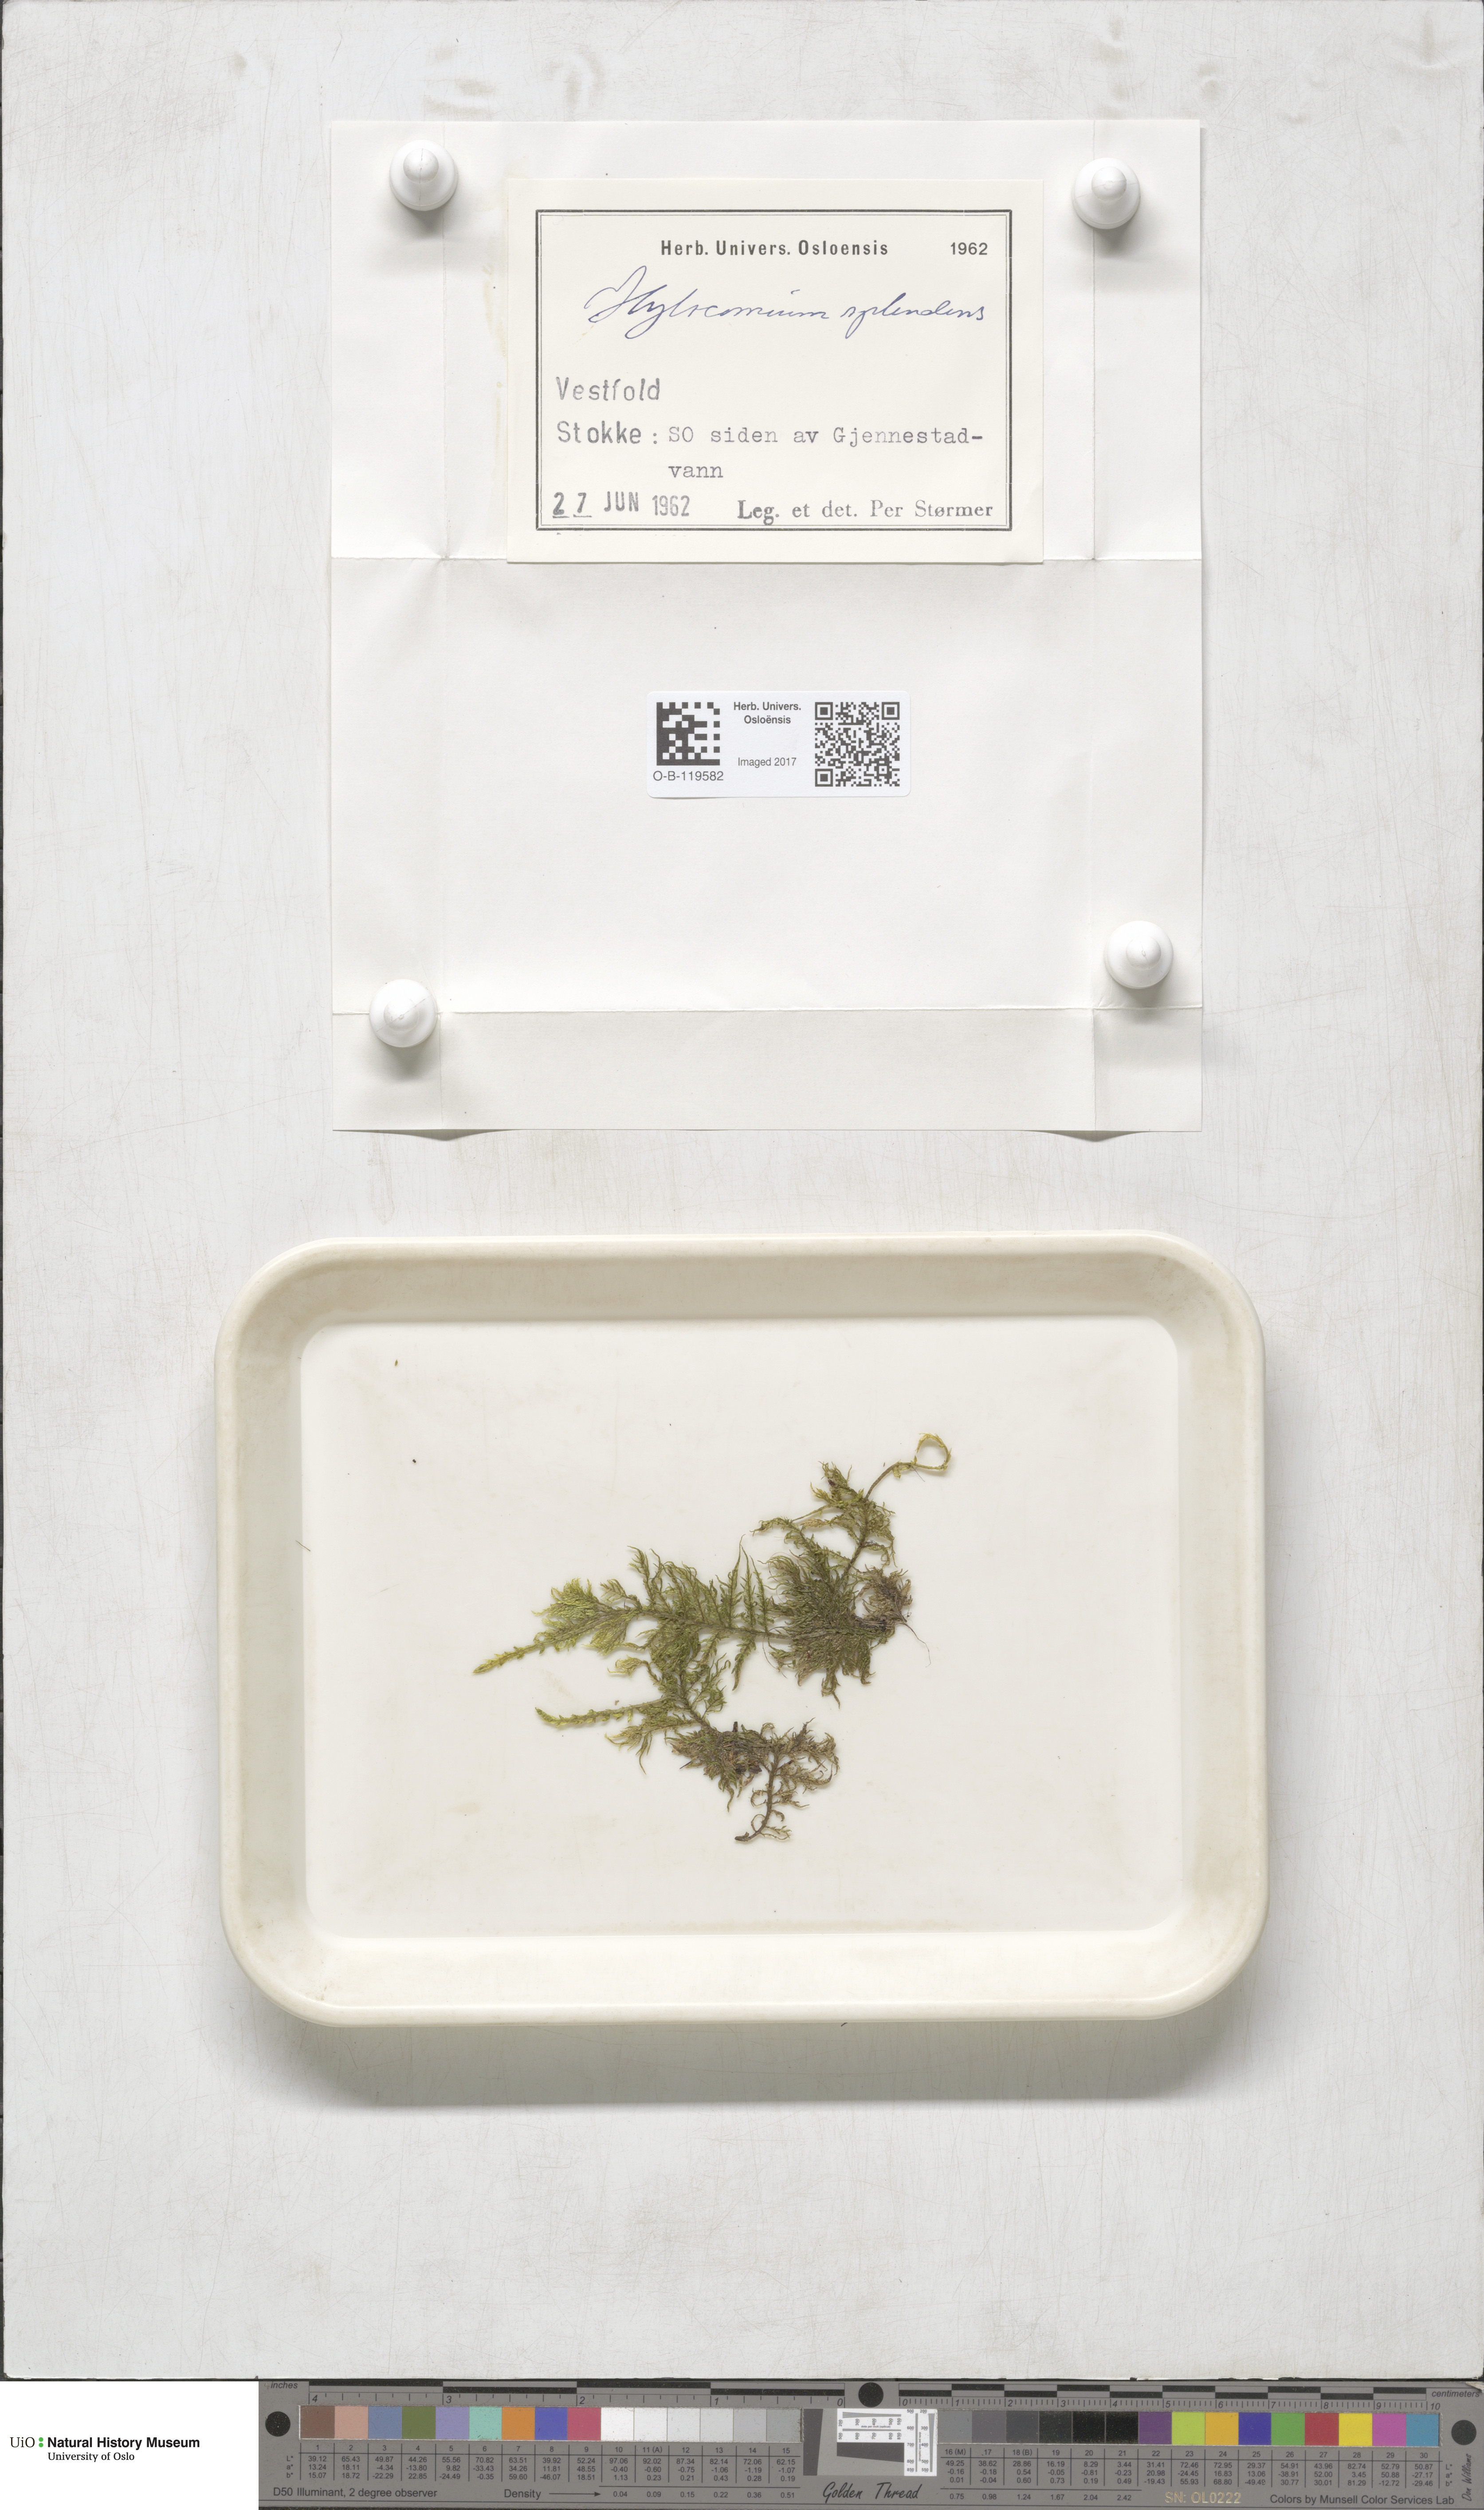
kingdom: Plantae
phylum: Bryophyta
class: Bryopsida
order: Hypnales
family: Hylocomiaceae
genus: Hylocomium
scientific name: Hylocomium splendens
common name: Stairstep moss
